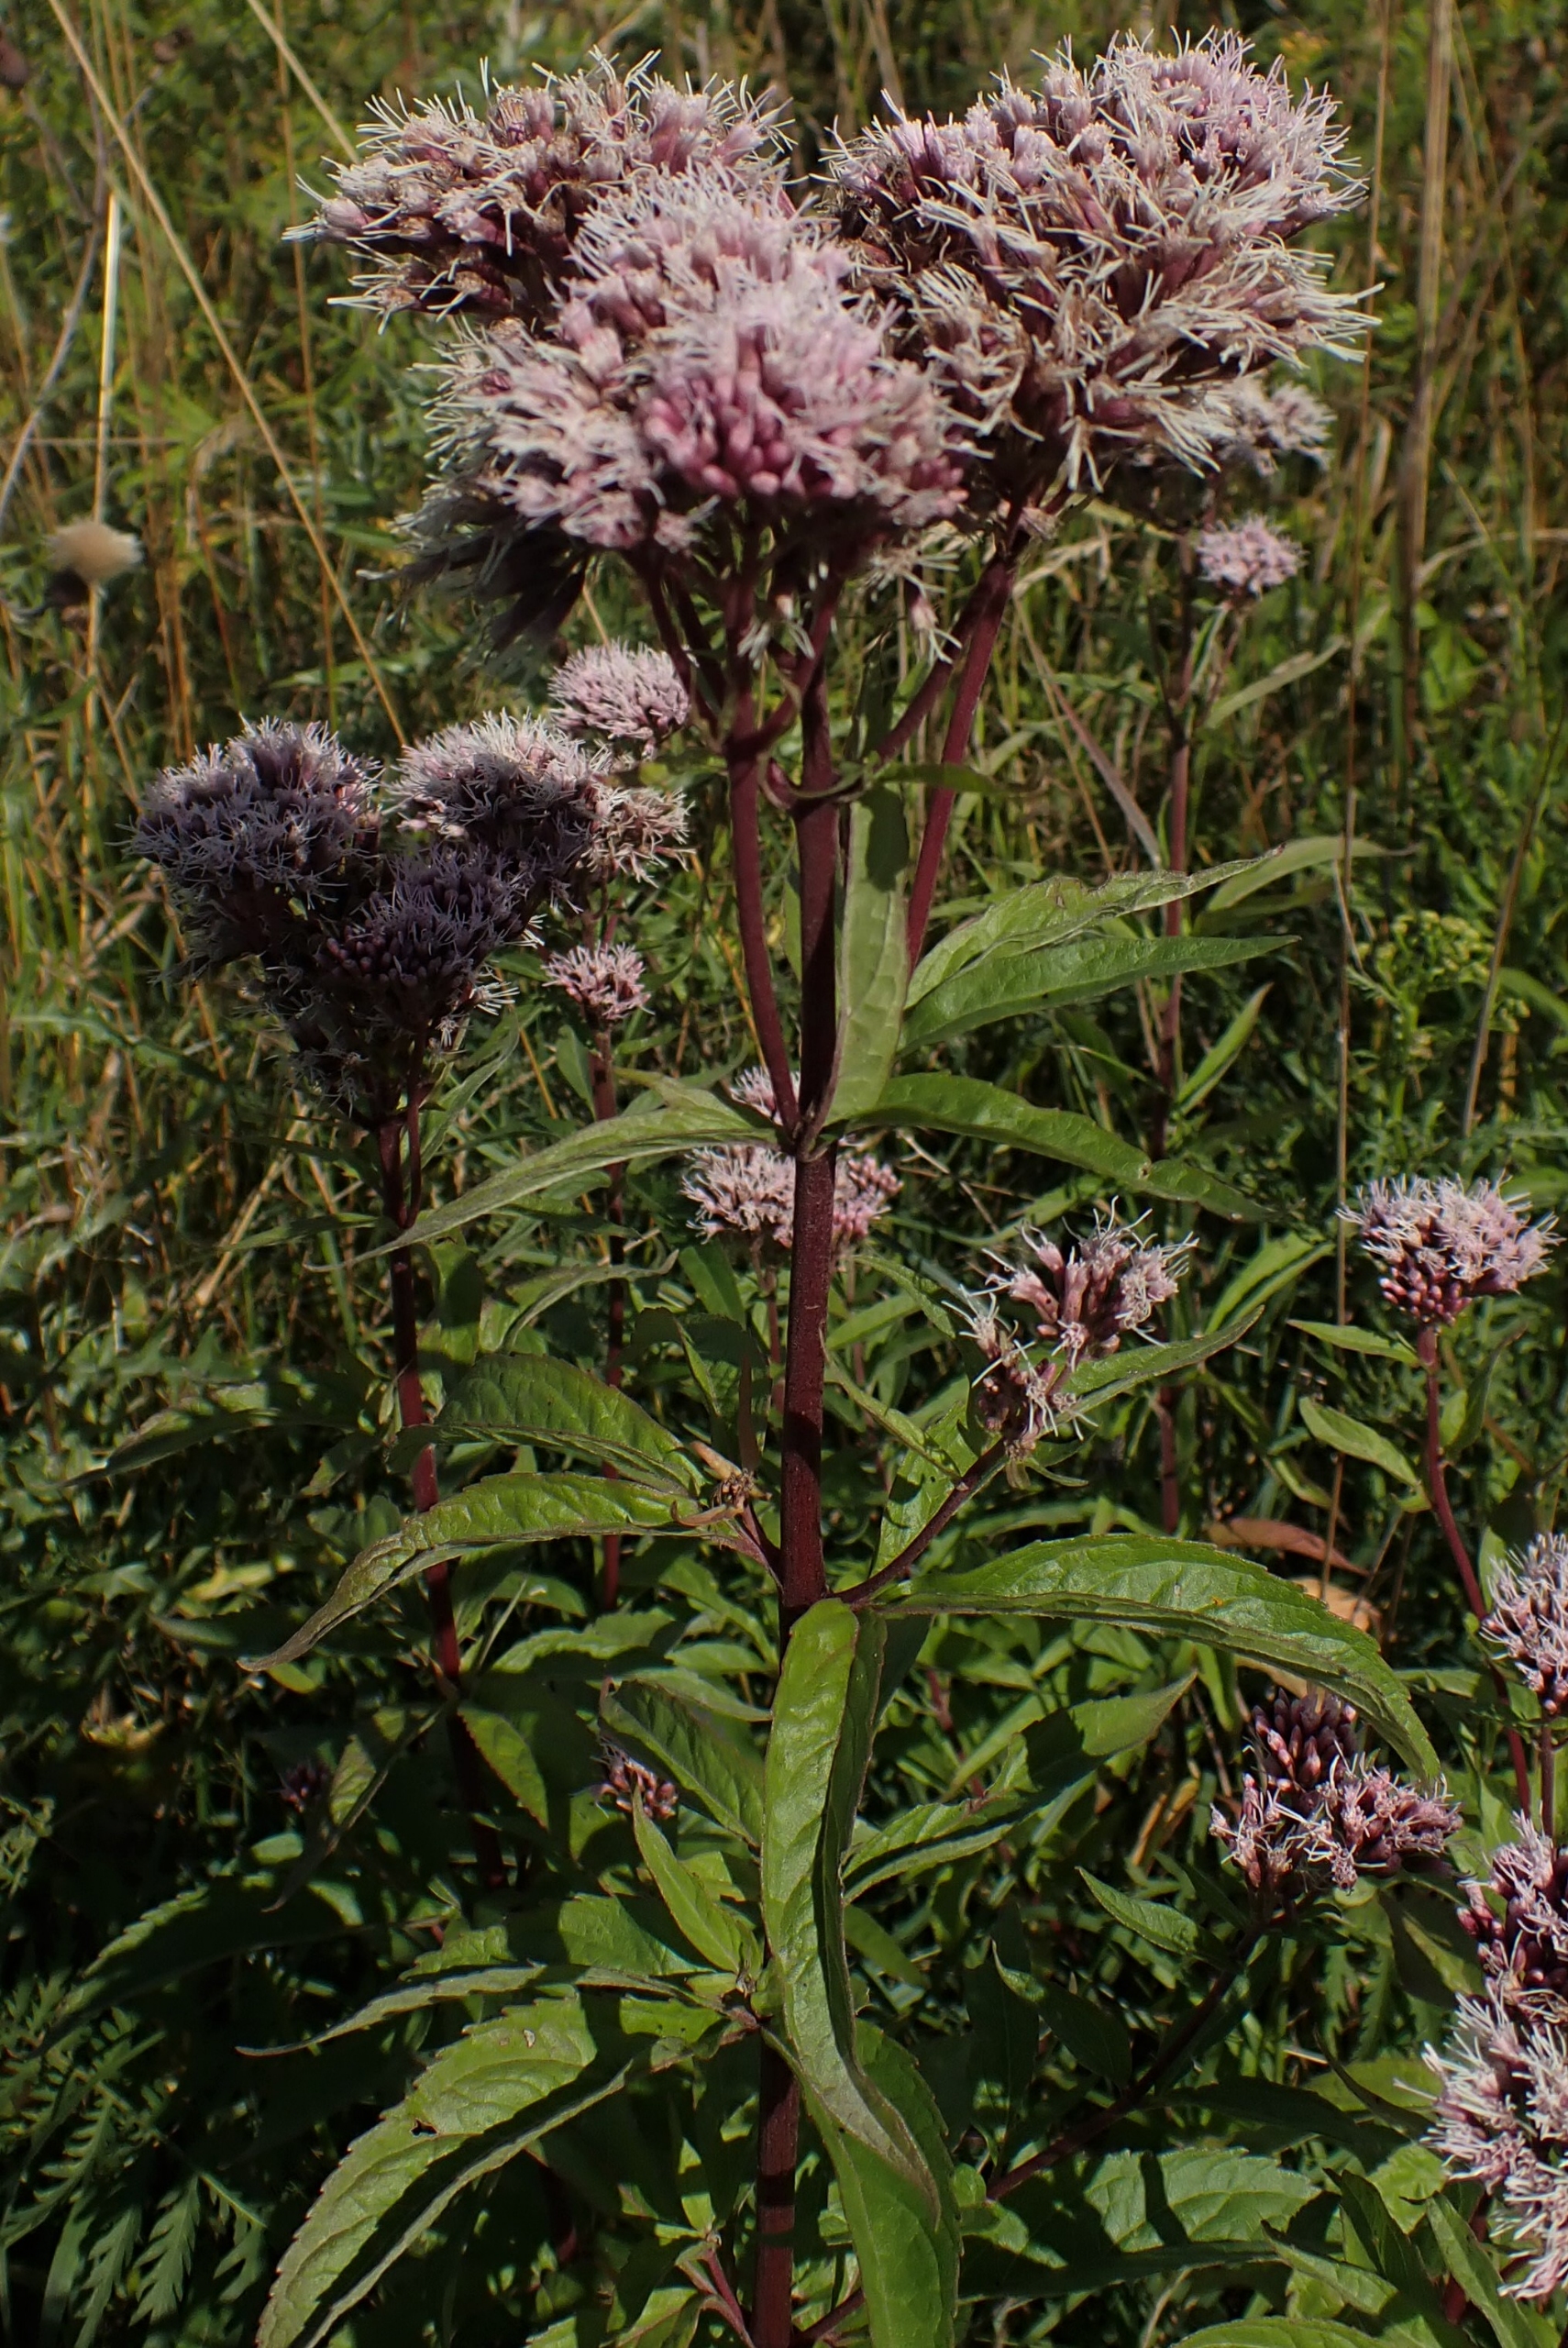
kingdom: Plantae
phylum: Tracheophyta
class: Magnoliopsida
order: Asterales
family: Asteraceae
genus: Eupatorium
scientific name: Eupatorium cannabinum
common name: Hjortetrøst
